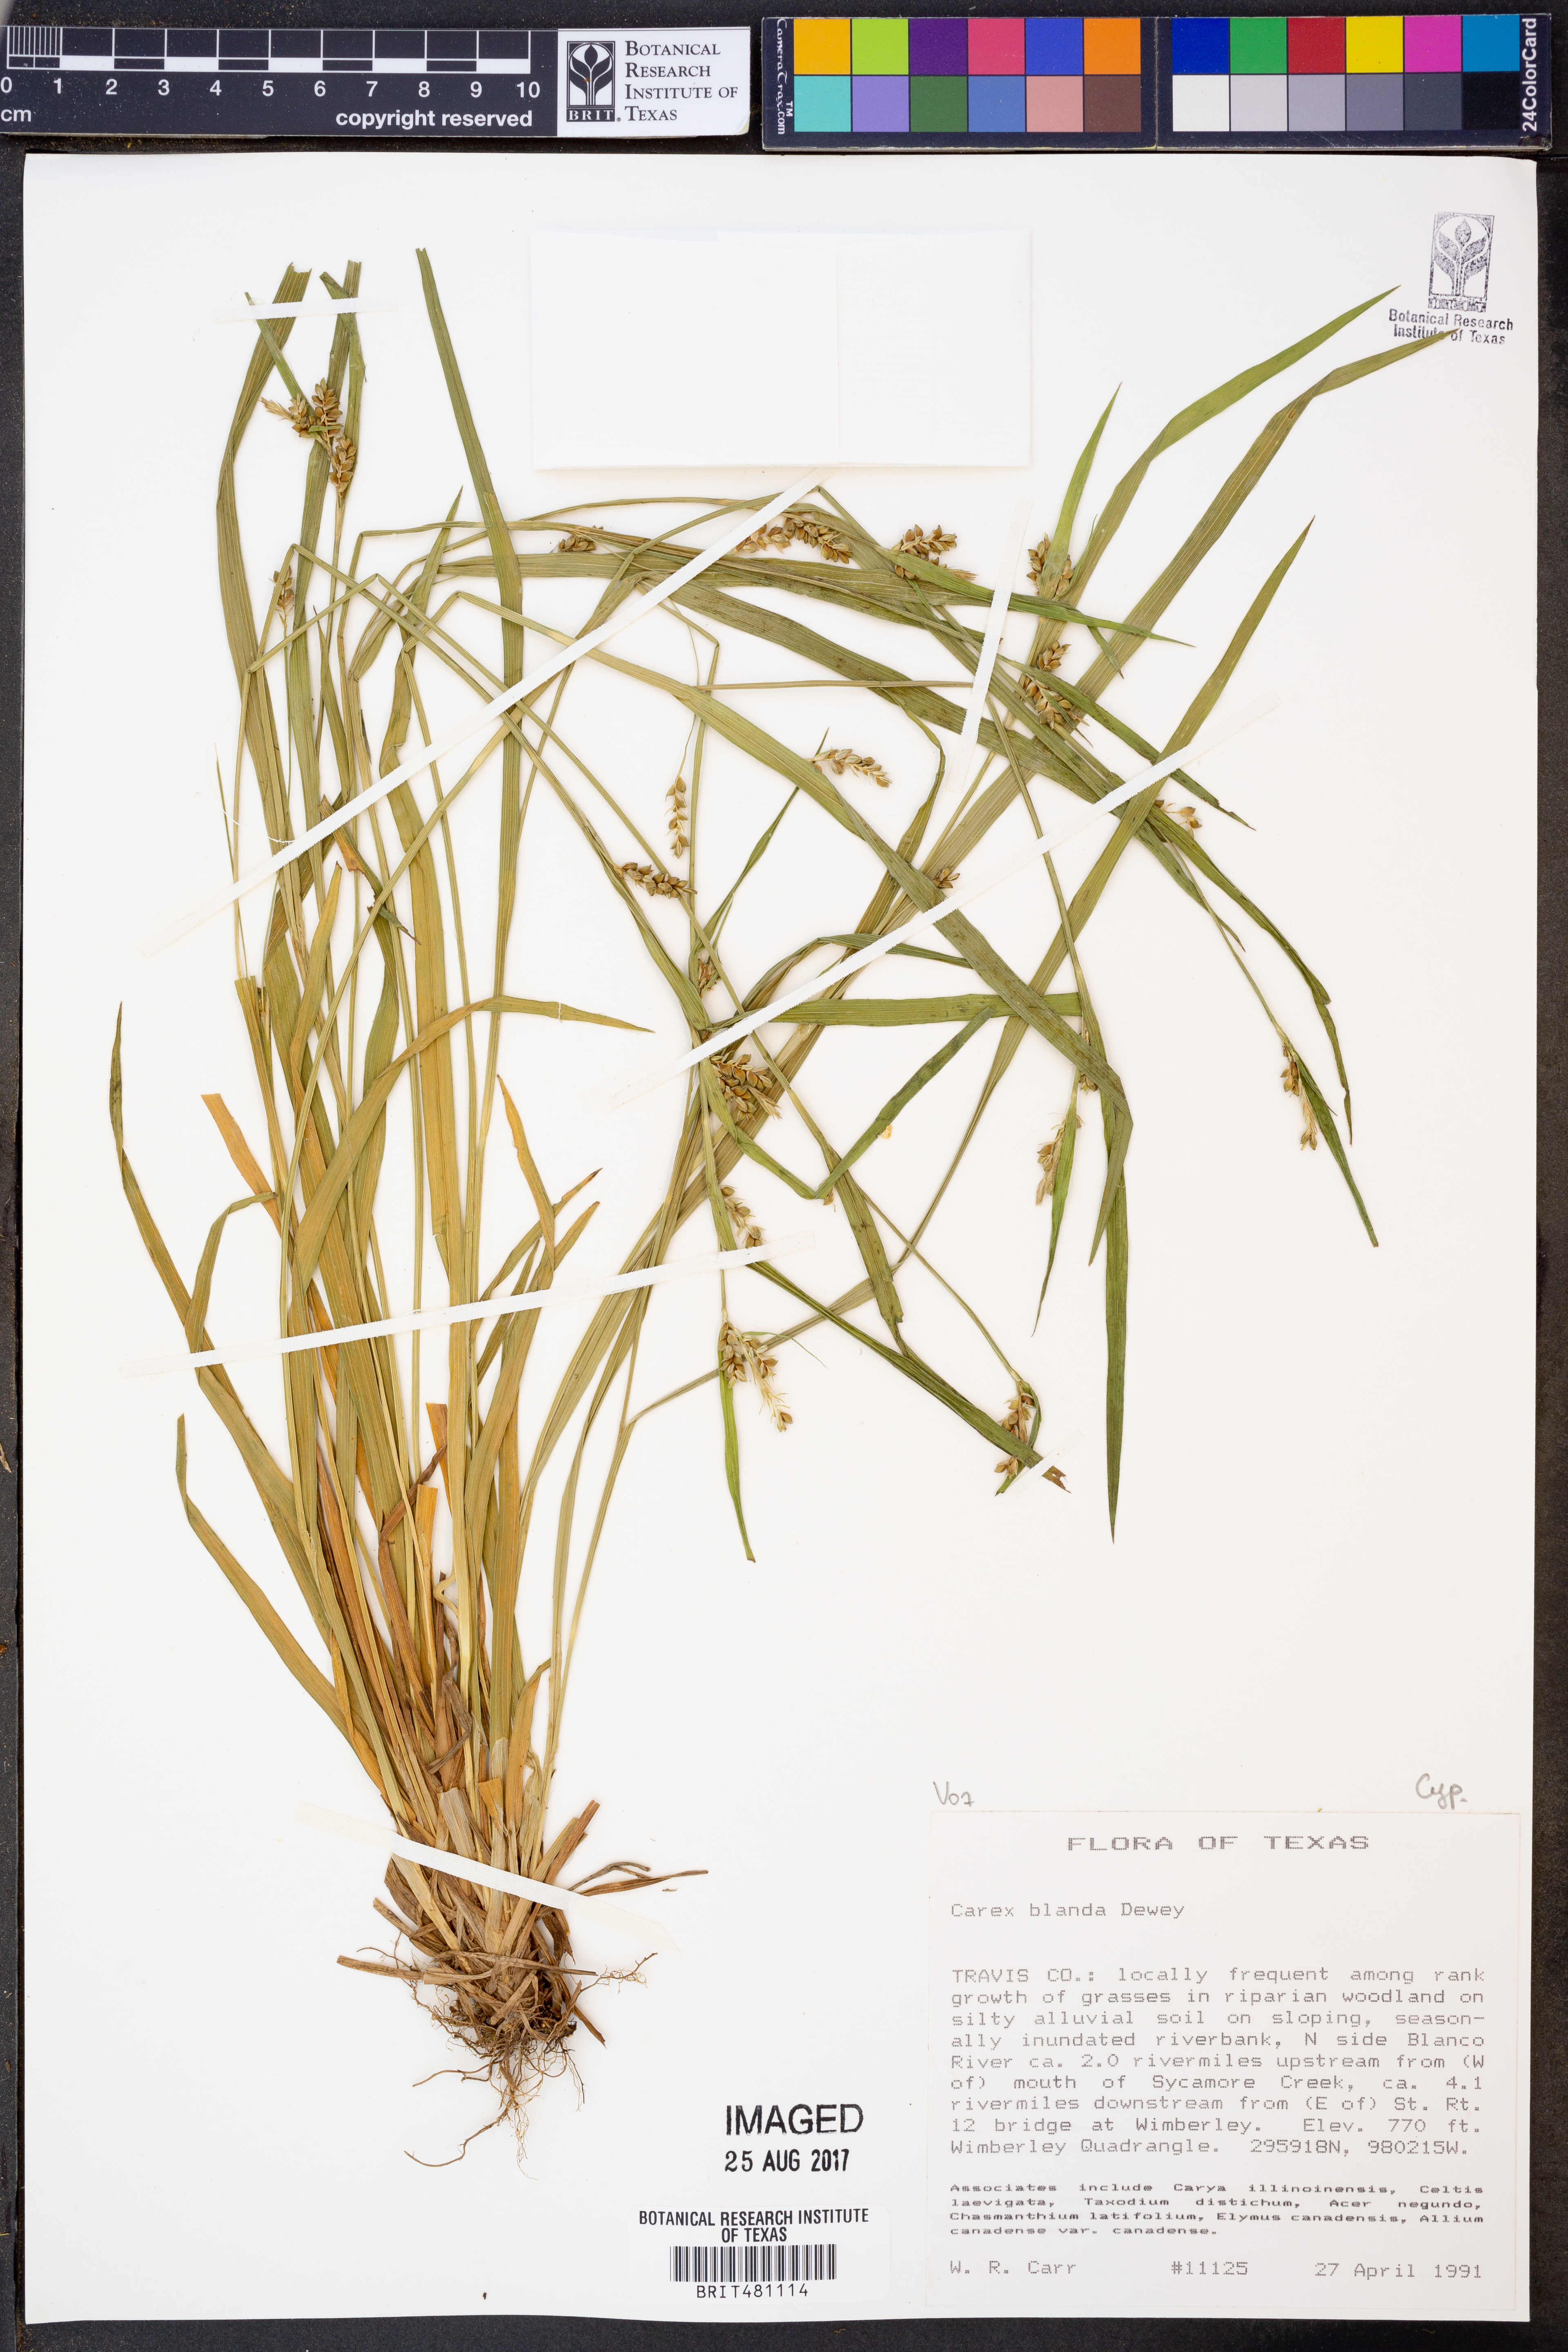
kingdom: Plantae
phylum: Tracheophyta
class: Liliopsida
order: Poales
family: Cyperaceae
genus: Carex
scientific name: Carex blanda
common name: Bland sedge
